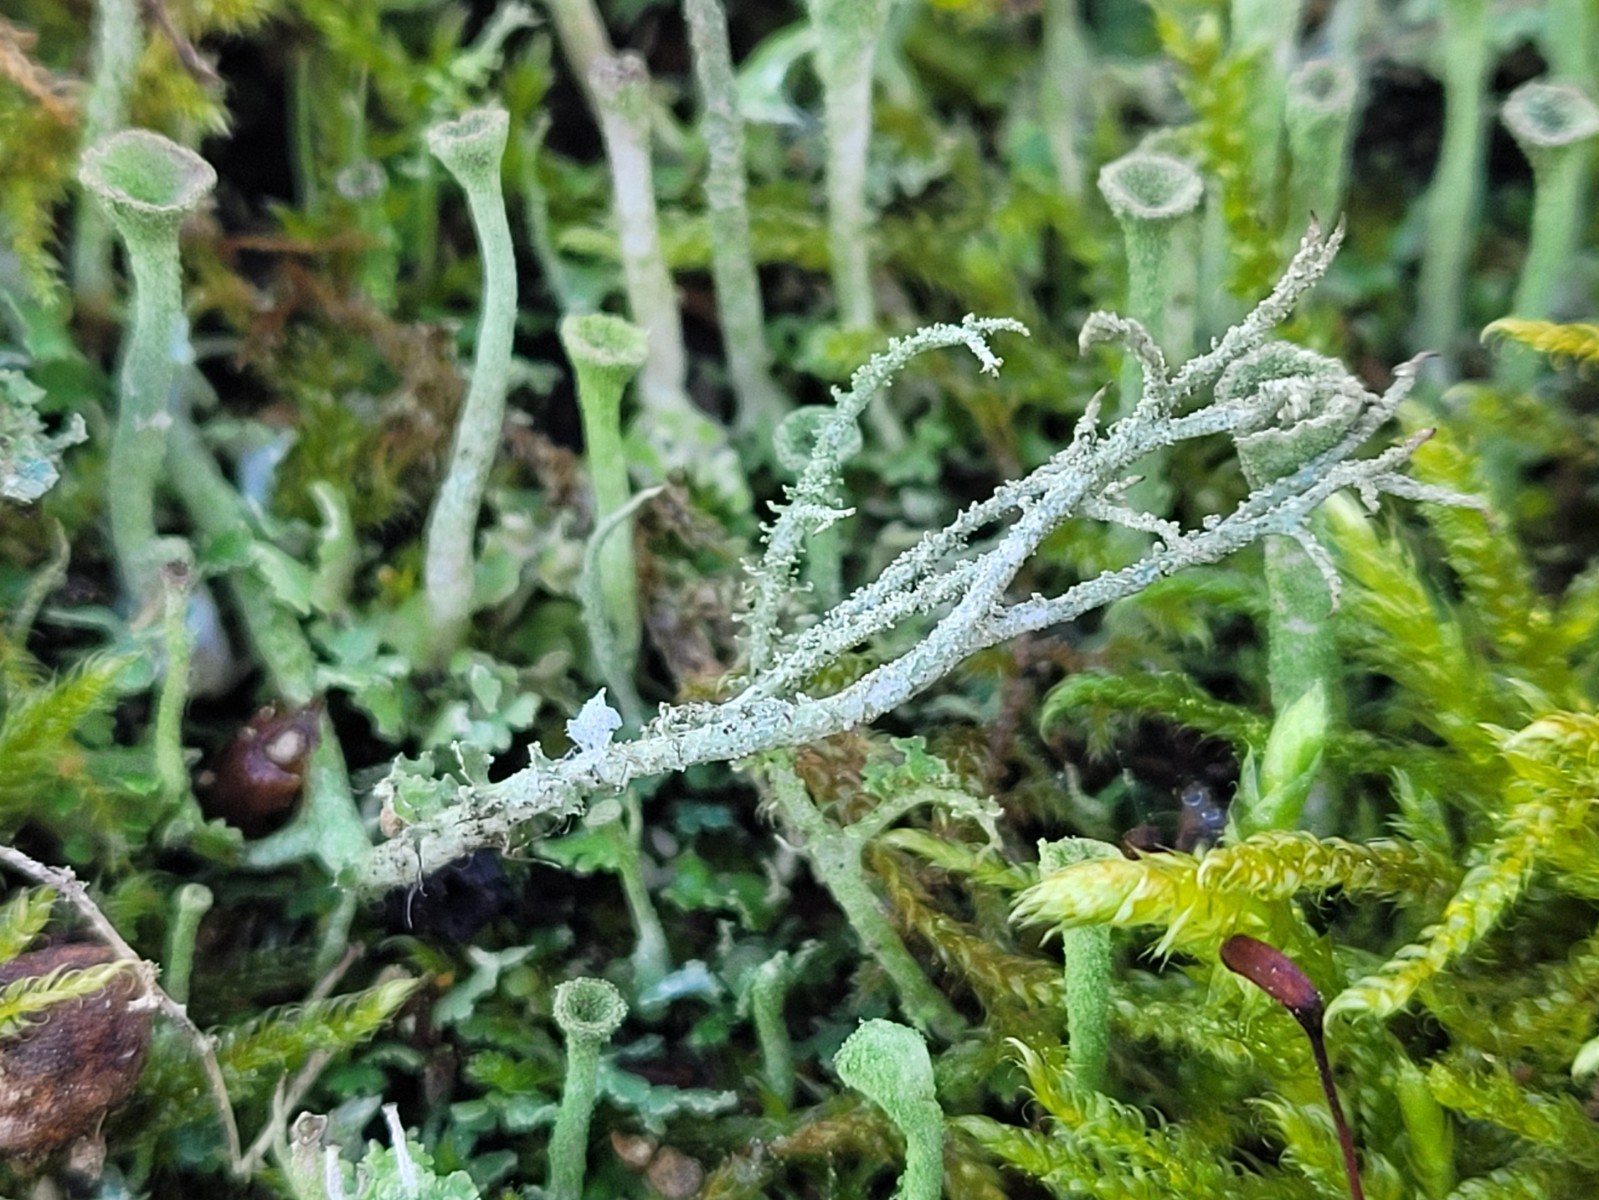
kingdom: Fungi
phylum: Ascomycota
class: Lecanoromycetes
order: Lecanorales
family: Cladoniaceae
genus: Cladonia
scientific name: Cladonia scabriuscula
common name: ru bægerlav
